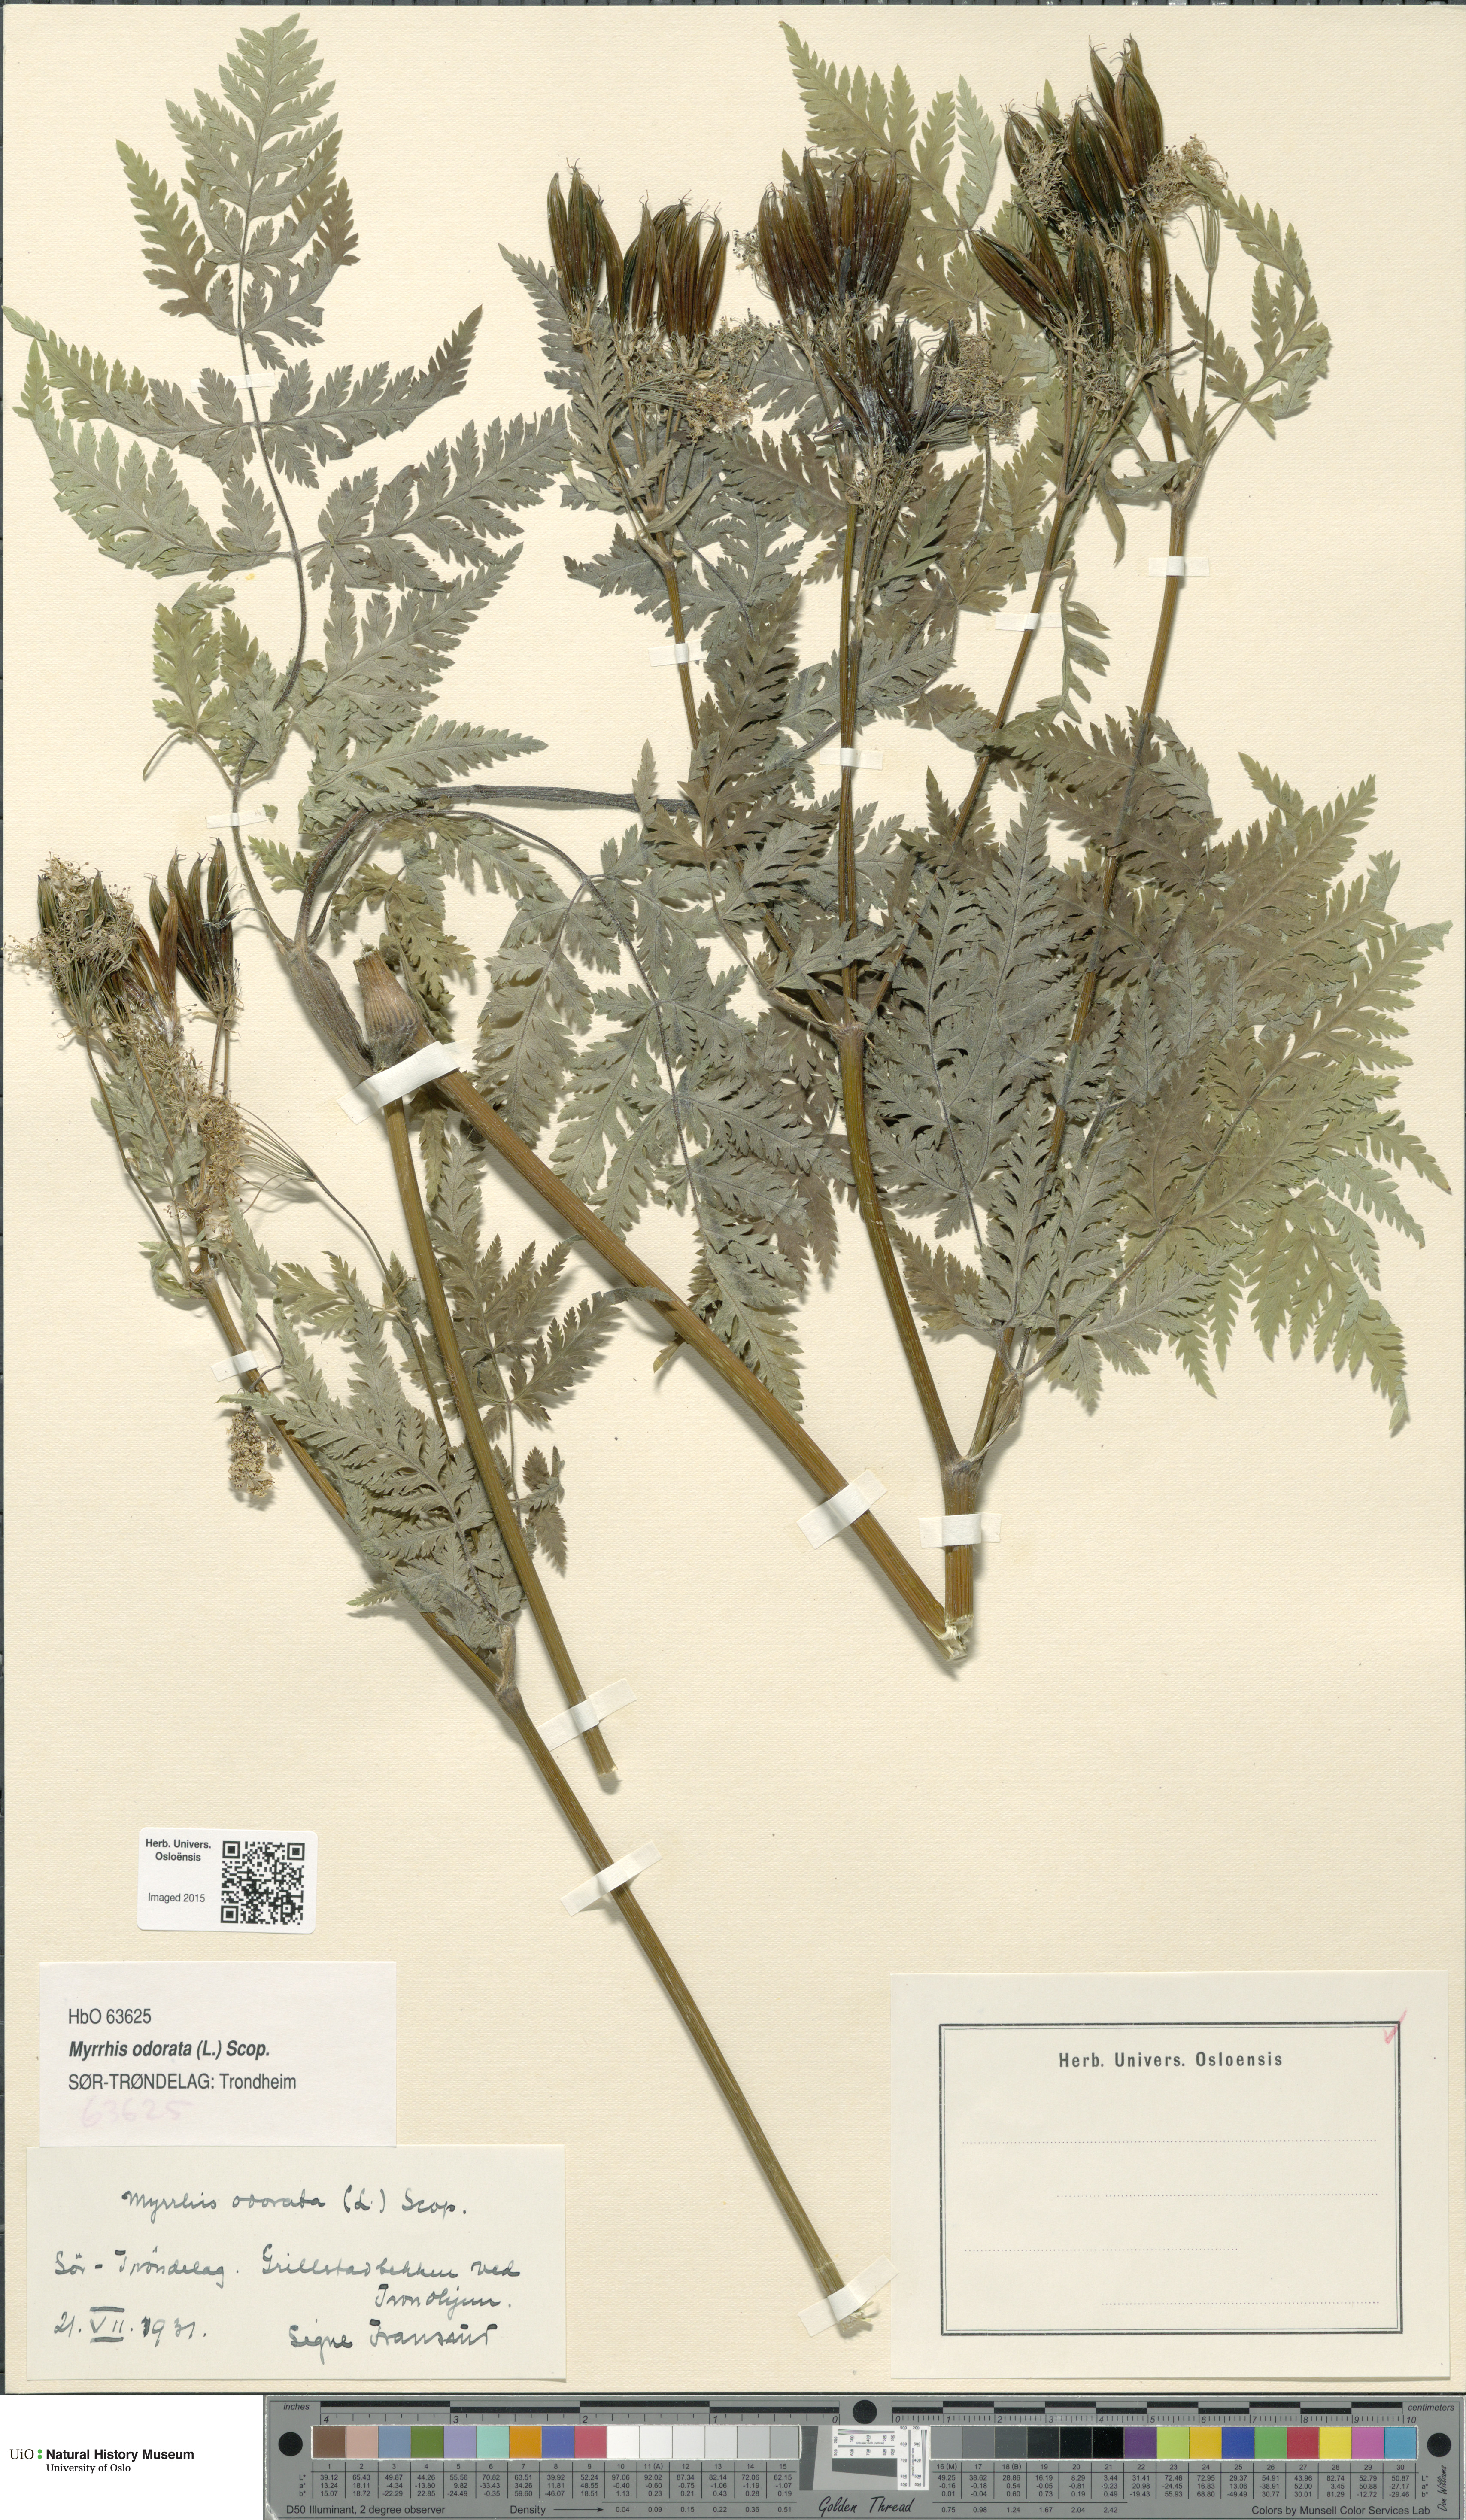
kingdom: Plantae
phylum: Tracheophyta
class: Magnoliopsida
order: Apiales
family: Apiaceae
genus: Myrrhis
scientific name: Myrrhis odorata
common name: Sweet cicely
